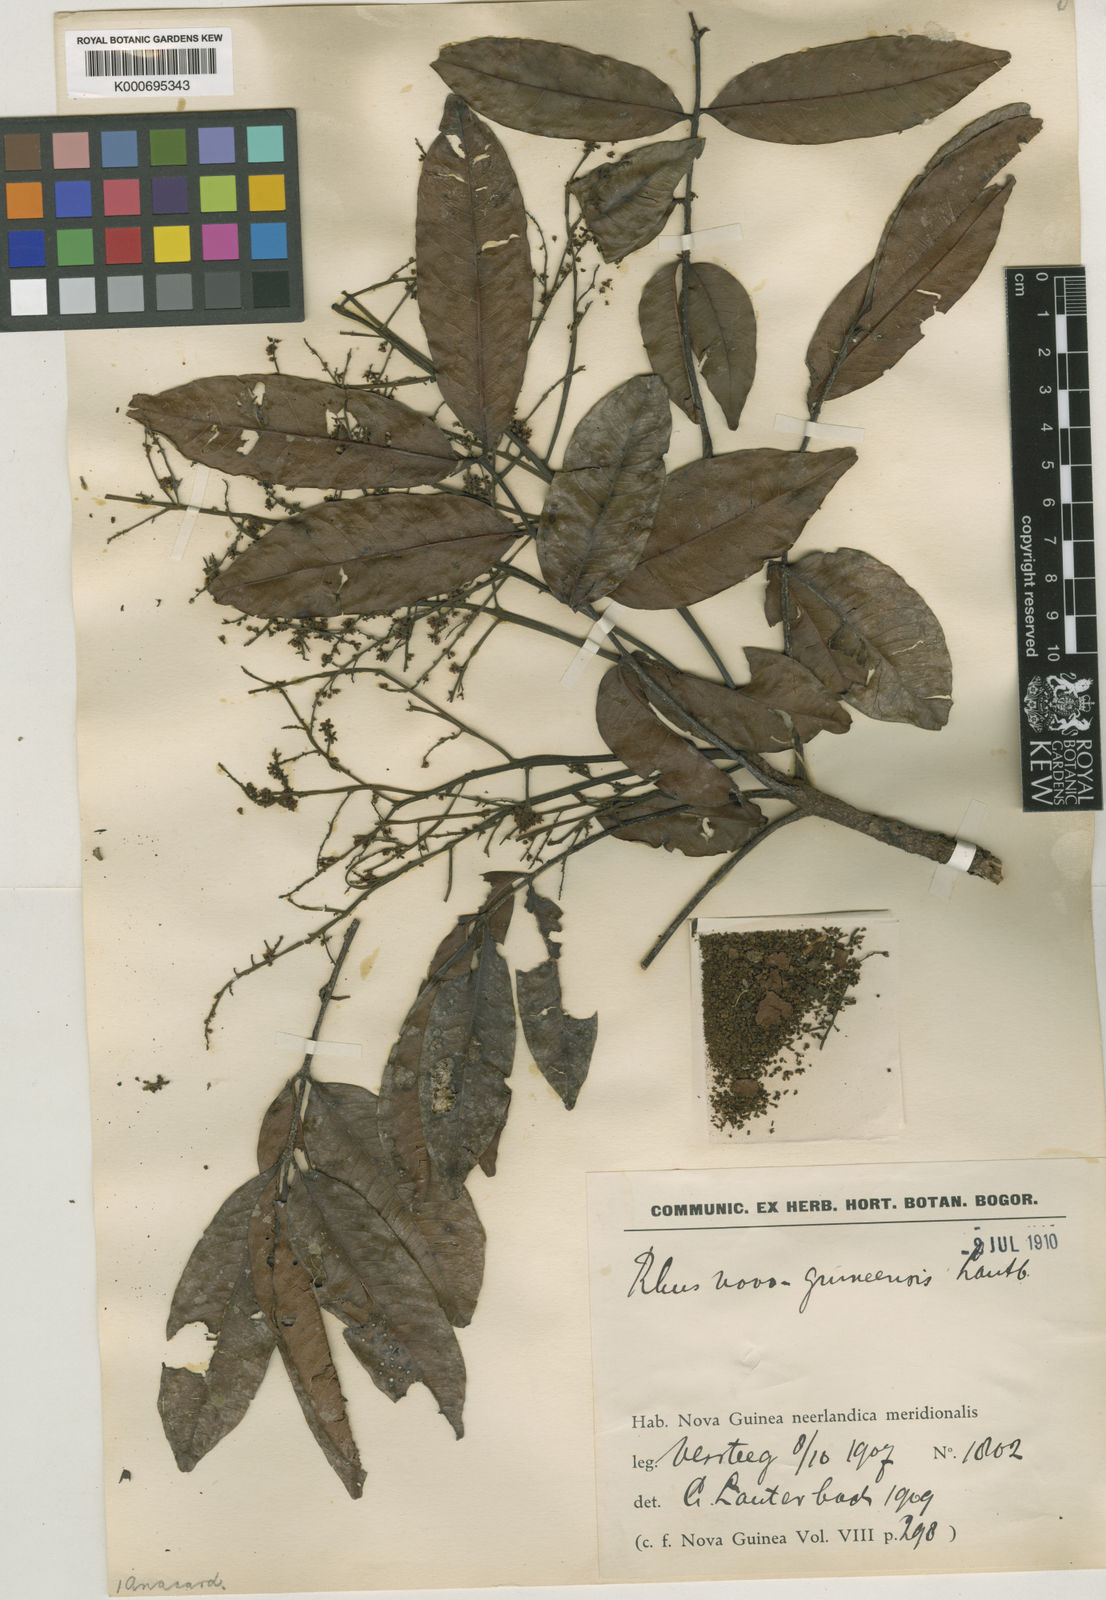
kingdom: Plantae
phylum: Tracheophyta
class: Magnoliopsida
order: Sapindales
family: Anacardiaceae
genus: Pentaspadon
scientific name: Pentaspadon motleyi
